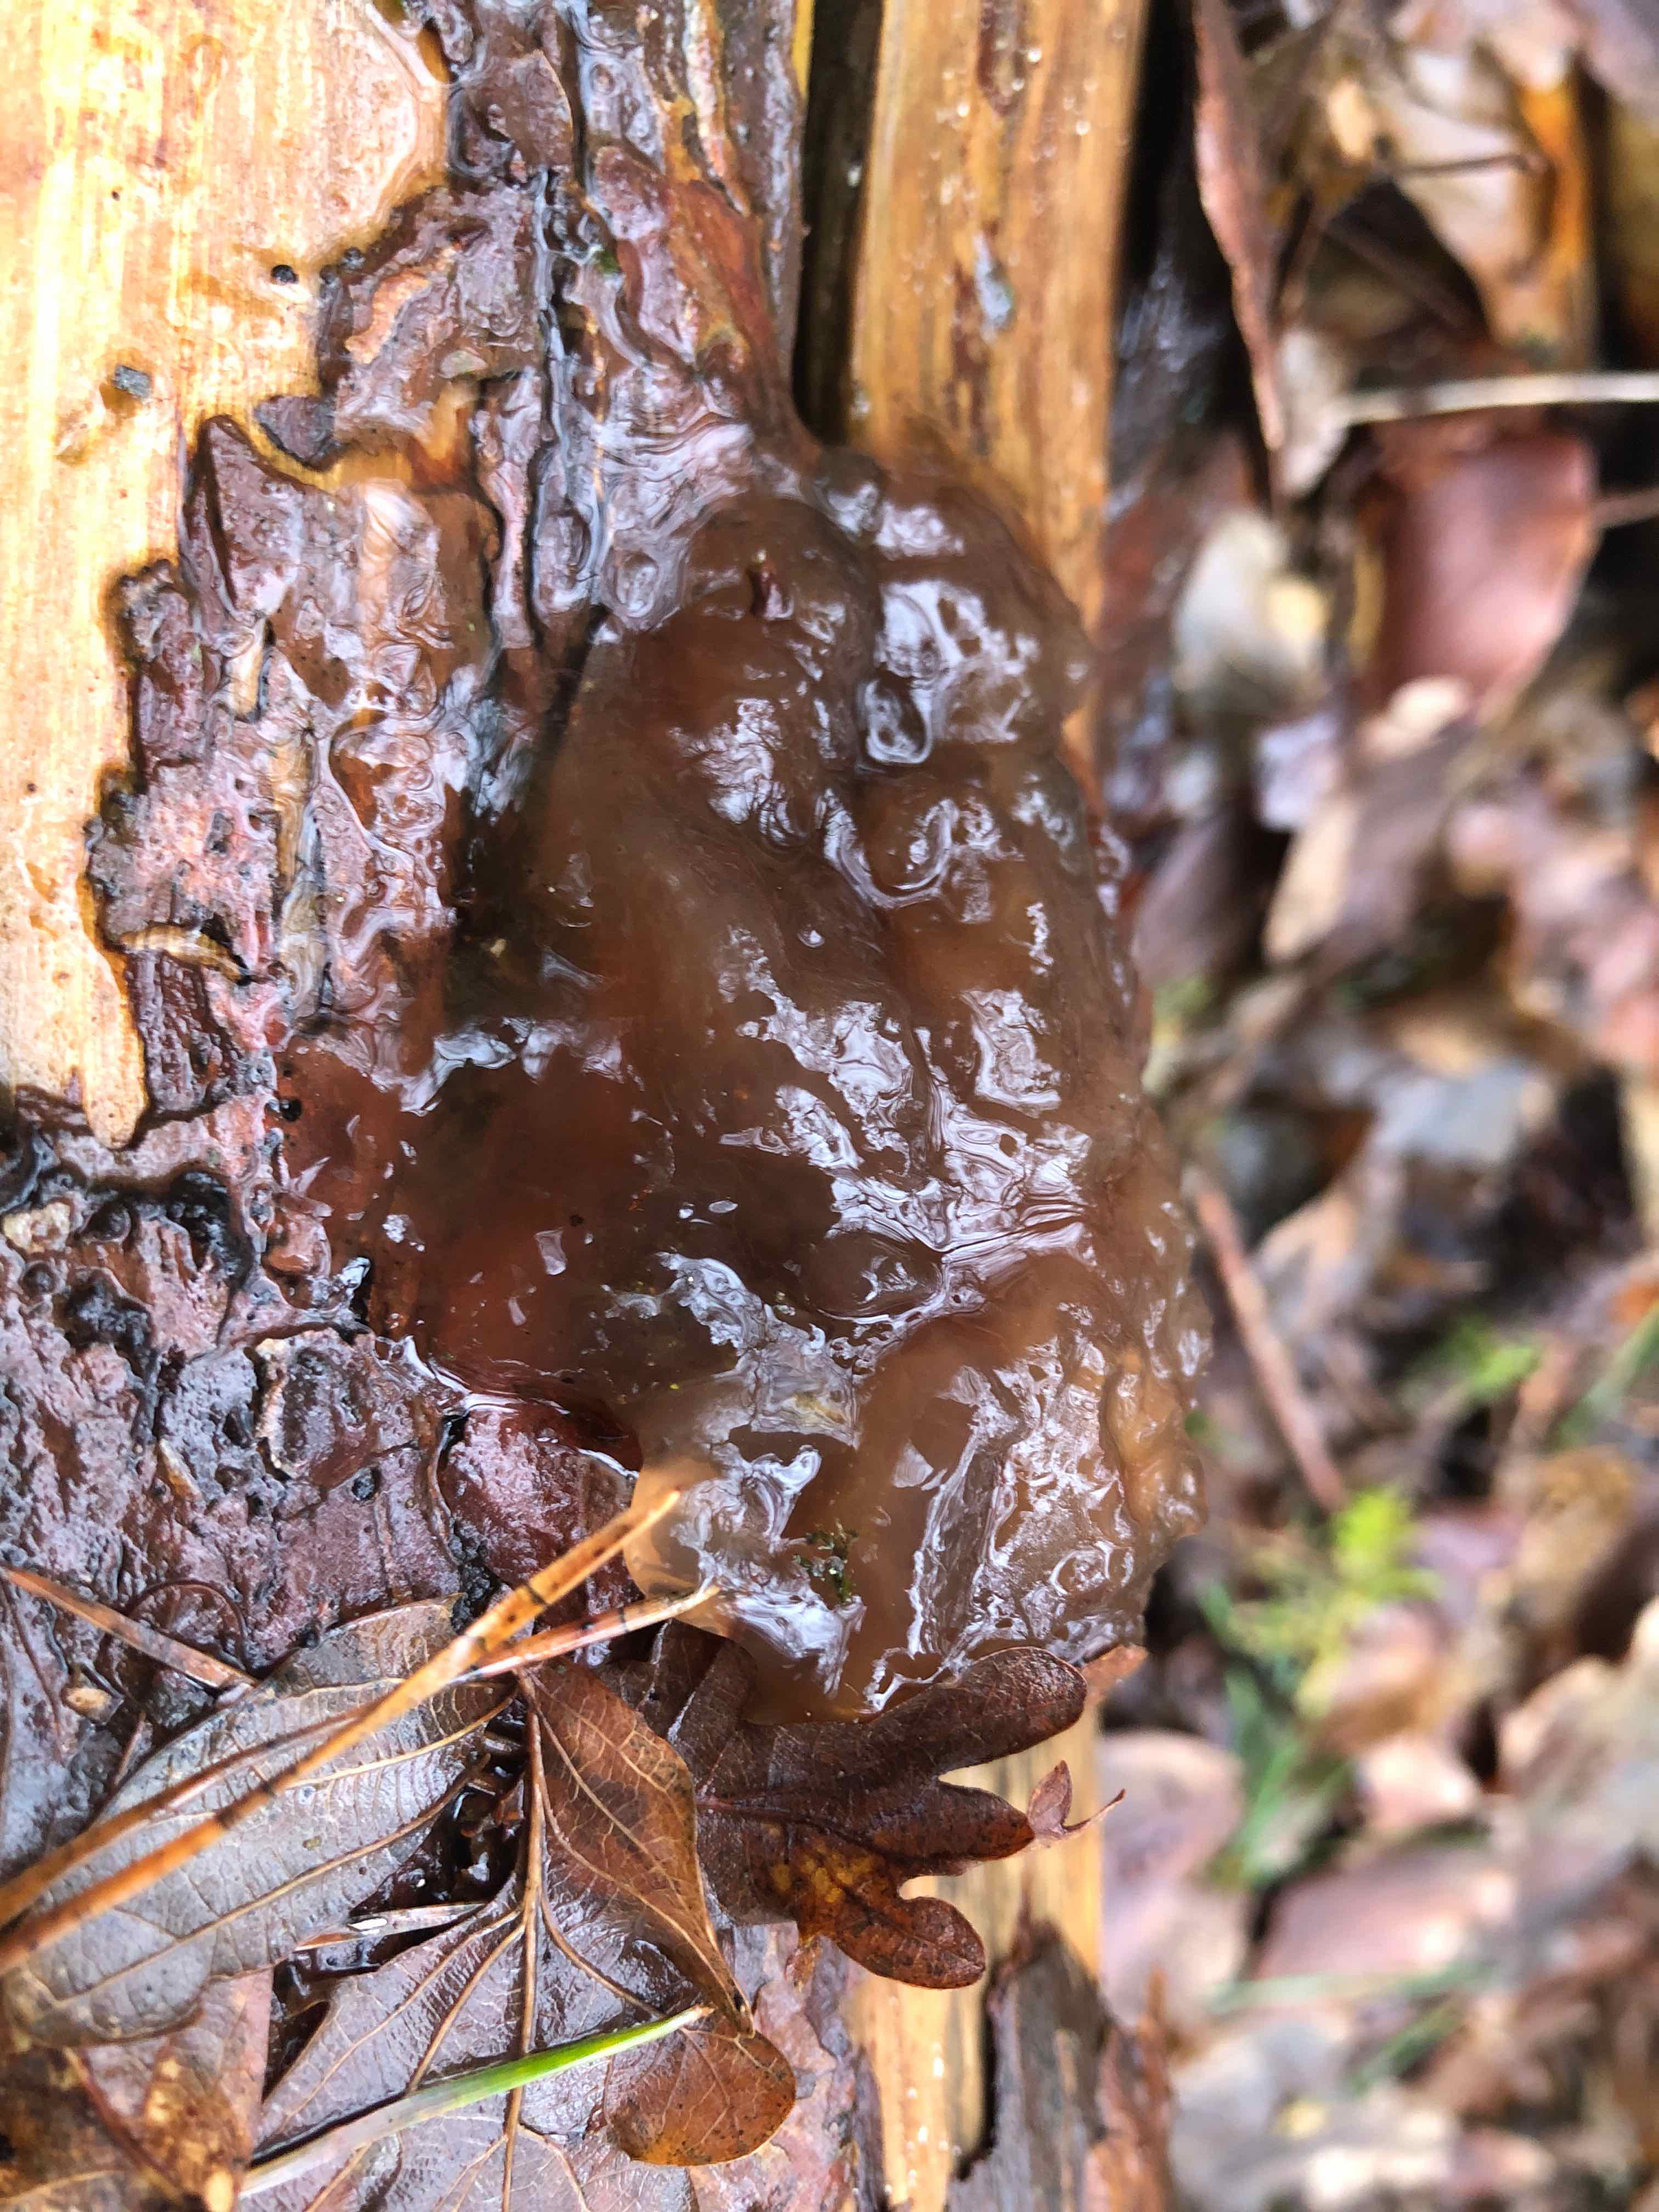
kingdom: Fungi
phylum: Basidiomycota
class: Tremellomycetes
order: Tremellales
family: Tremellaceae
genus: Phaeotremella
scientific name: Phaeotremella foliacea
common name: brun bævresvamp
